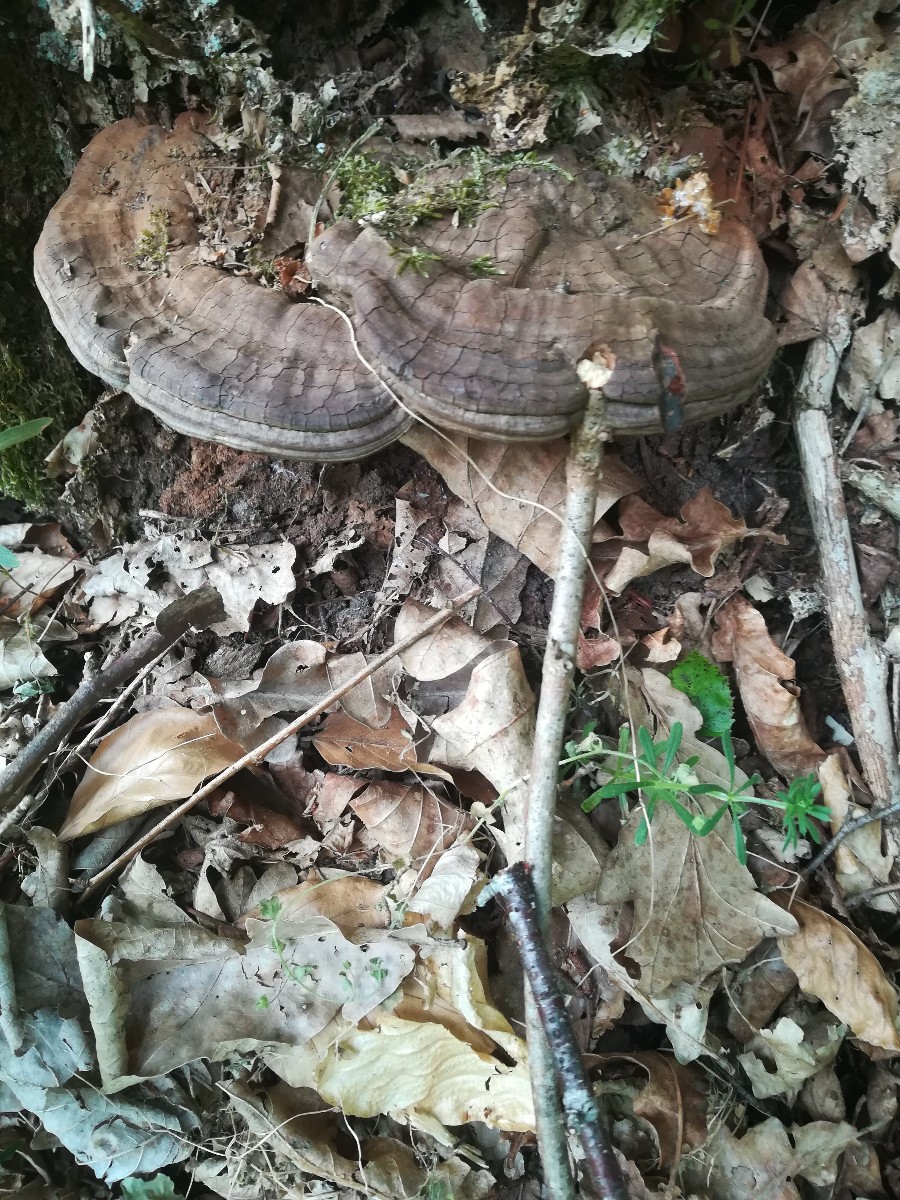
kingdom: Fungi
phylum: Basidiomycota
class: Agaricomycetes
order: Polyporales
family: Polyporaceae
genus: Ganoderma
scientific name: Ganoderma applanatum
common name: flad lakporesvamp
